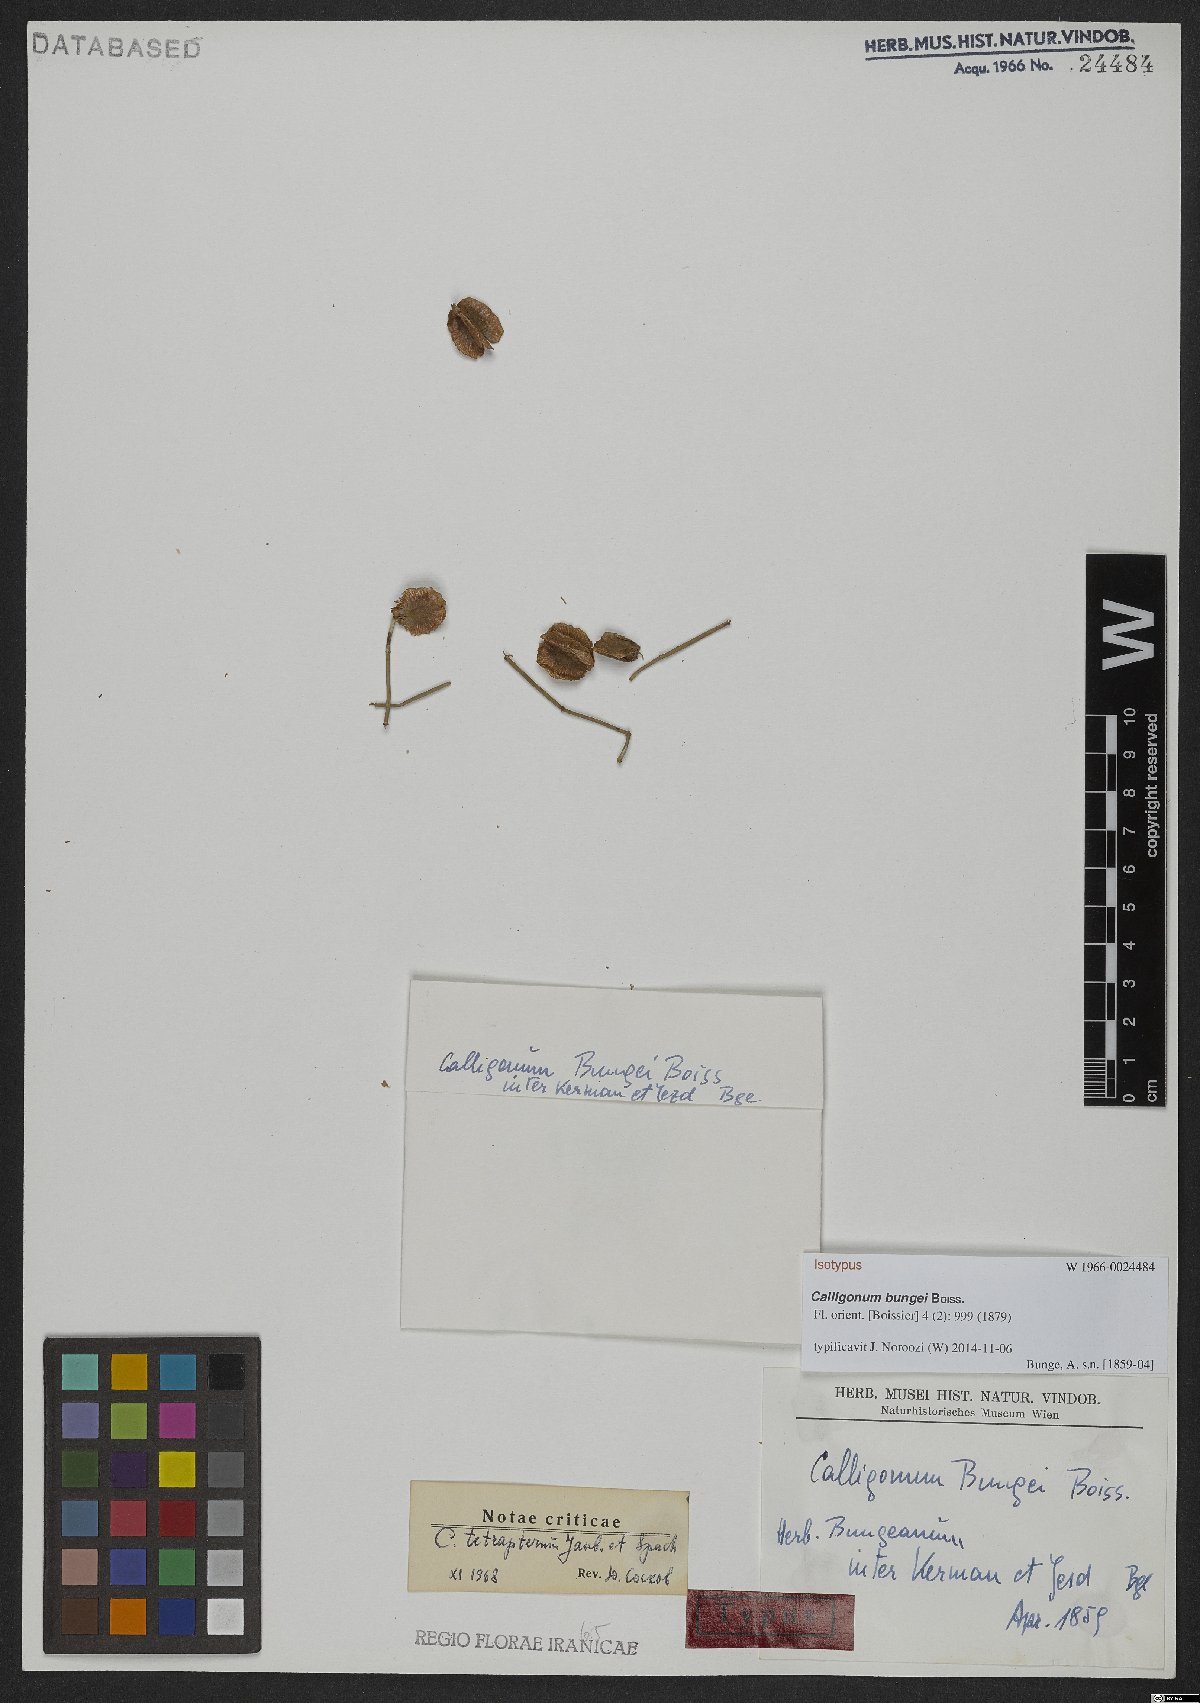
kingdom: Plantae
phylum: Tracheophyta
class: Magnoliopsida
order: Caryophyllales
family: Polygonaceae
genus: Calligonum
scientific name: Calligonum tetrapterum
